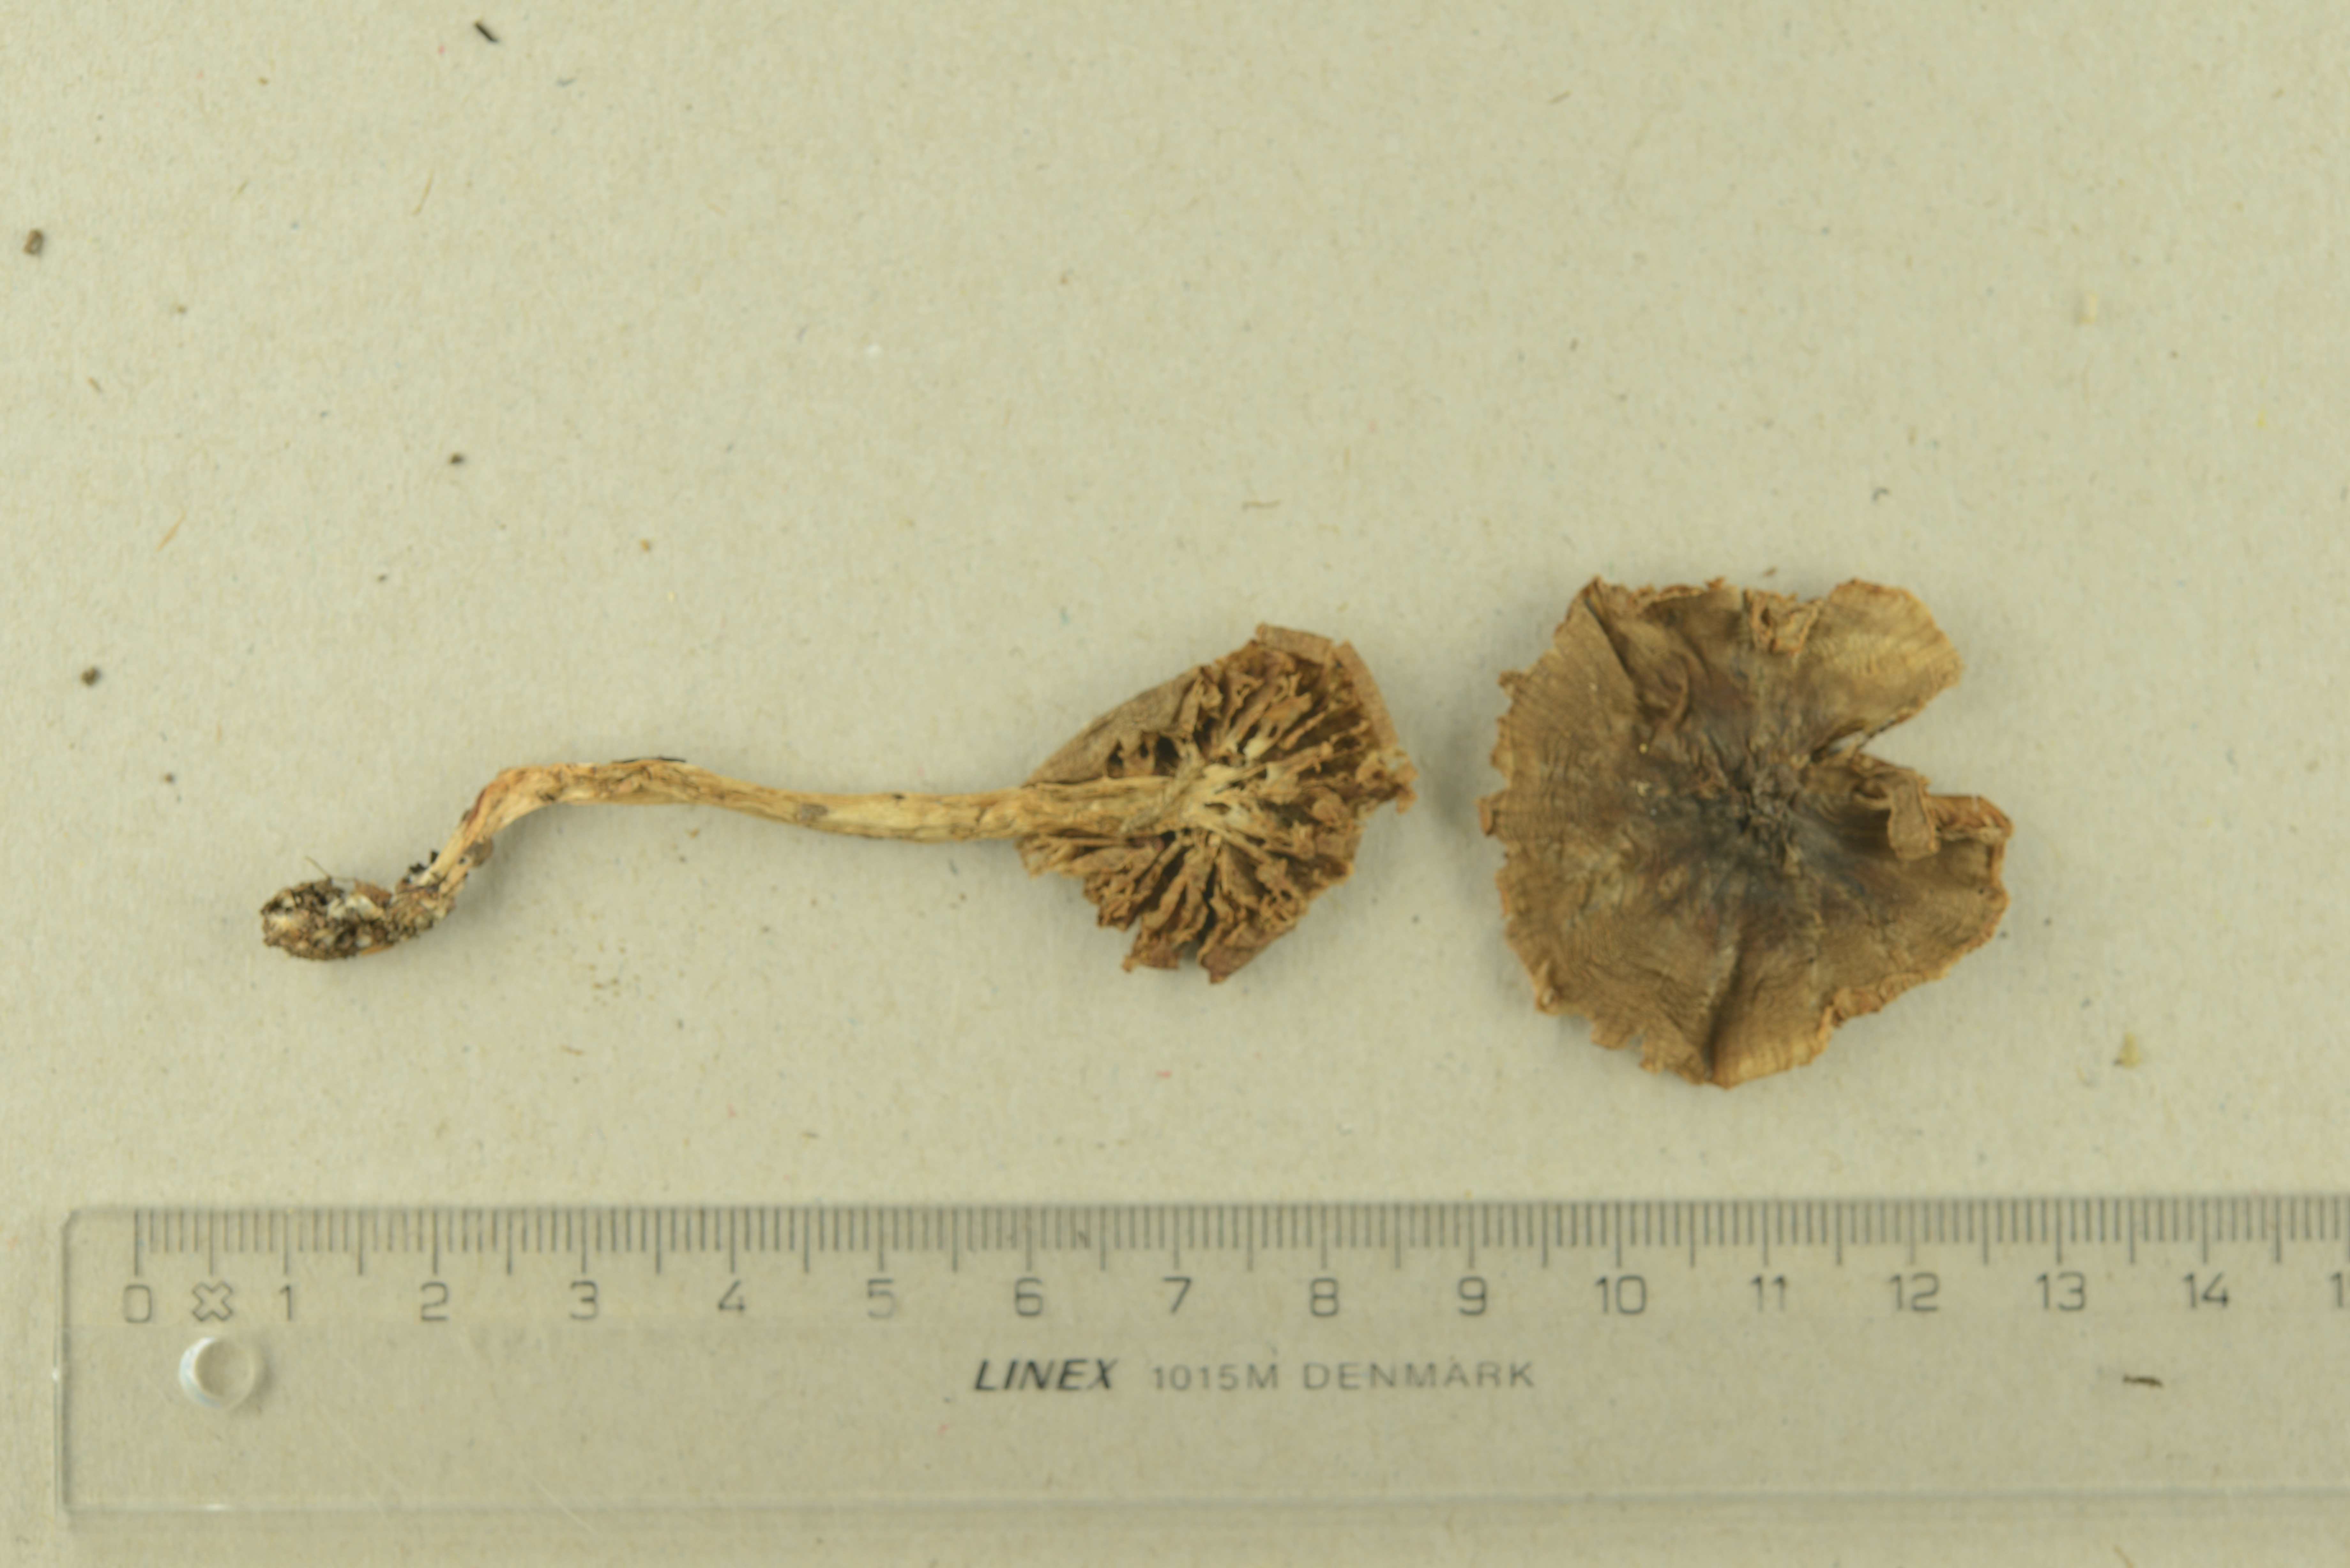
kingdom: Fungi
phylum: Basidiomycota
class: Agaricomycetes
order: Agaricales
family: Cortinariaceae
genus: Cortinarius
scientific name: Cortinarius fragrantior
